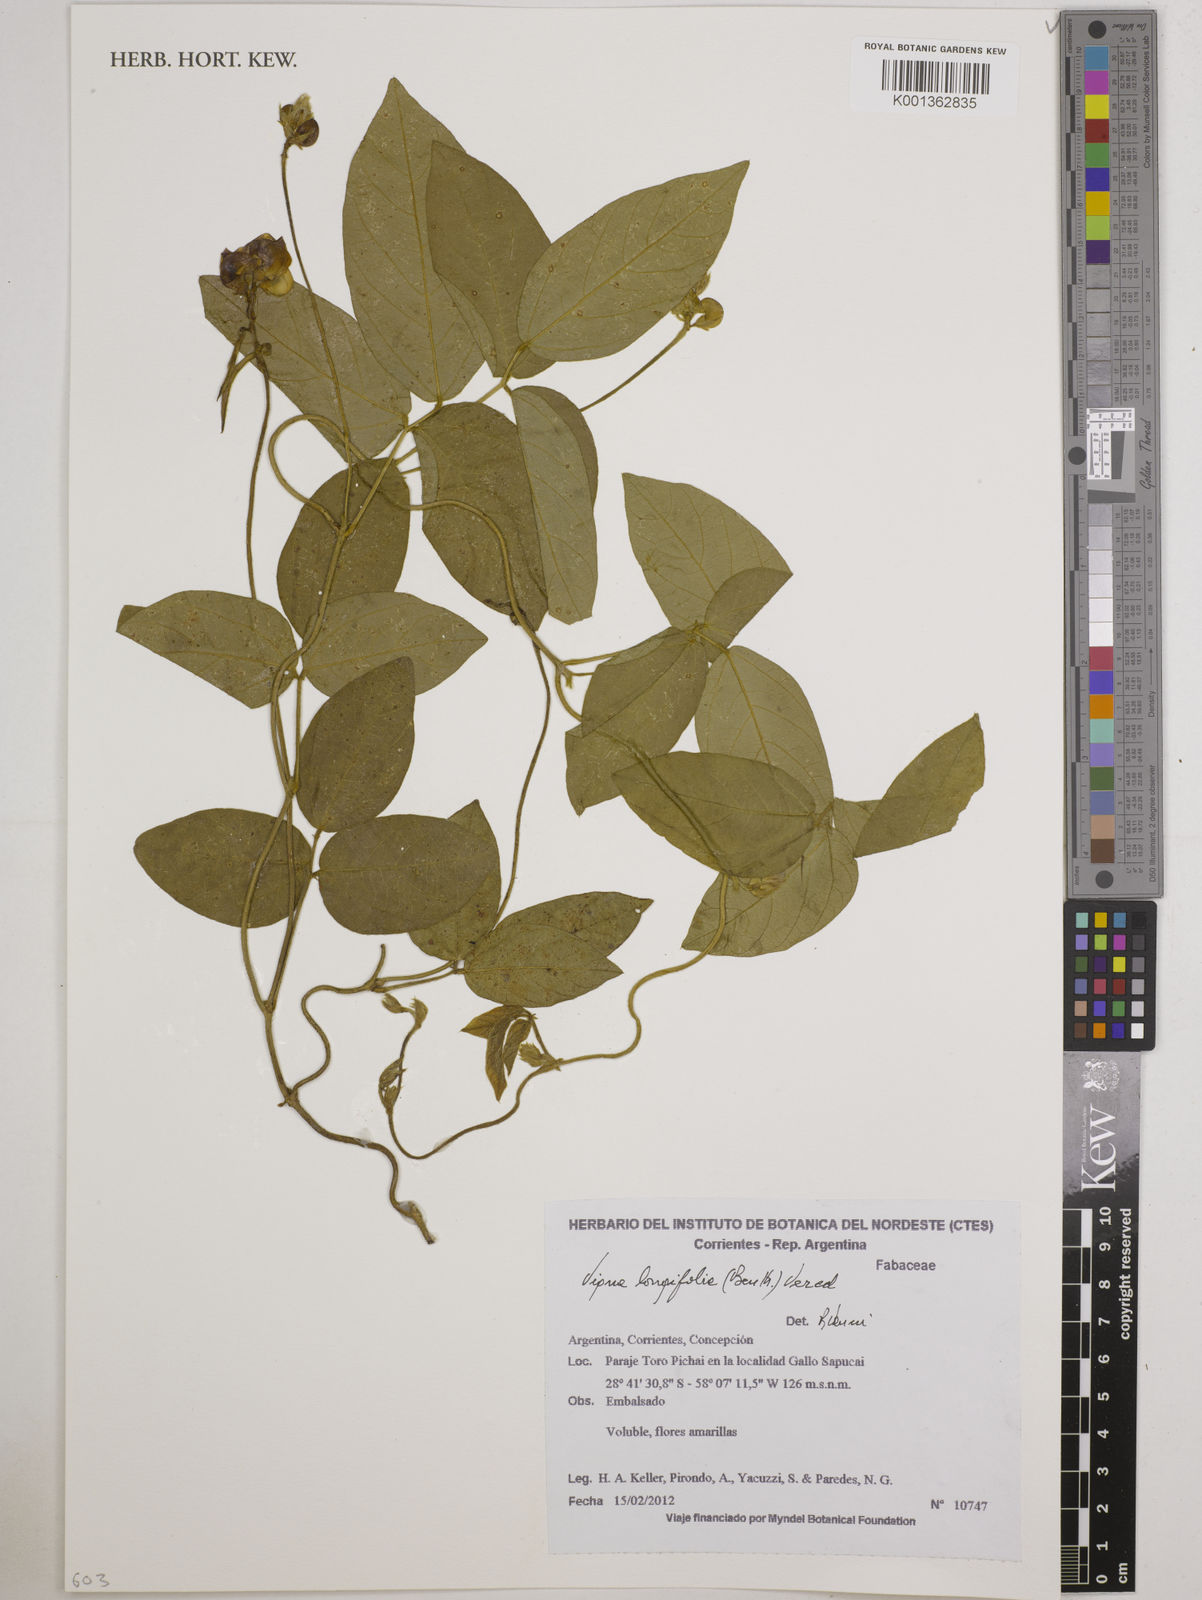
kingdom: Plantae
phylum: Tracheophyta
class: Magnoliopsida
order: Fabales
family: Fabaceae
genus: Vigna
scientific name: Vigna longifolia
